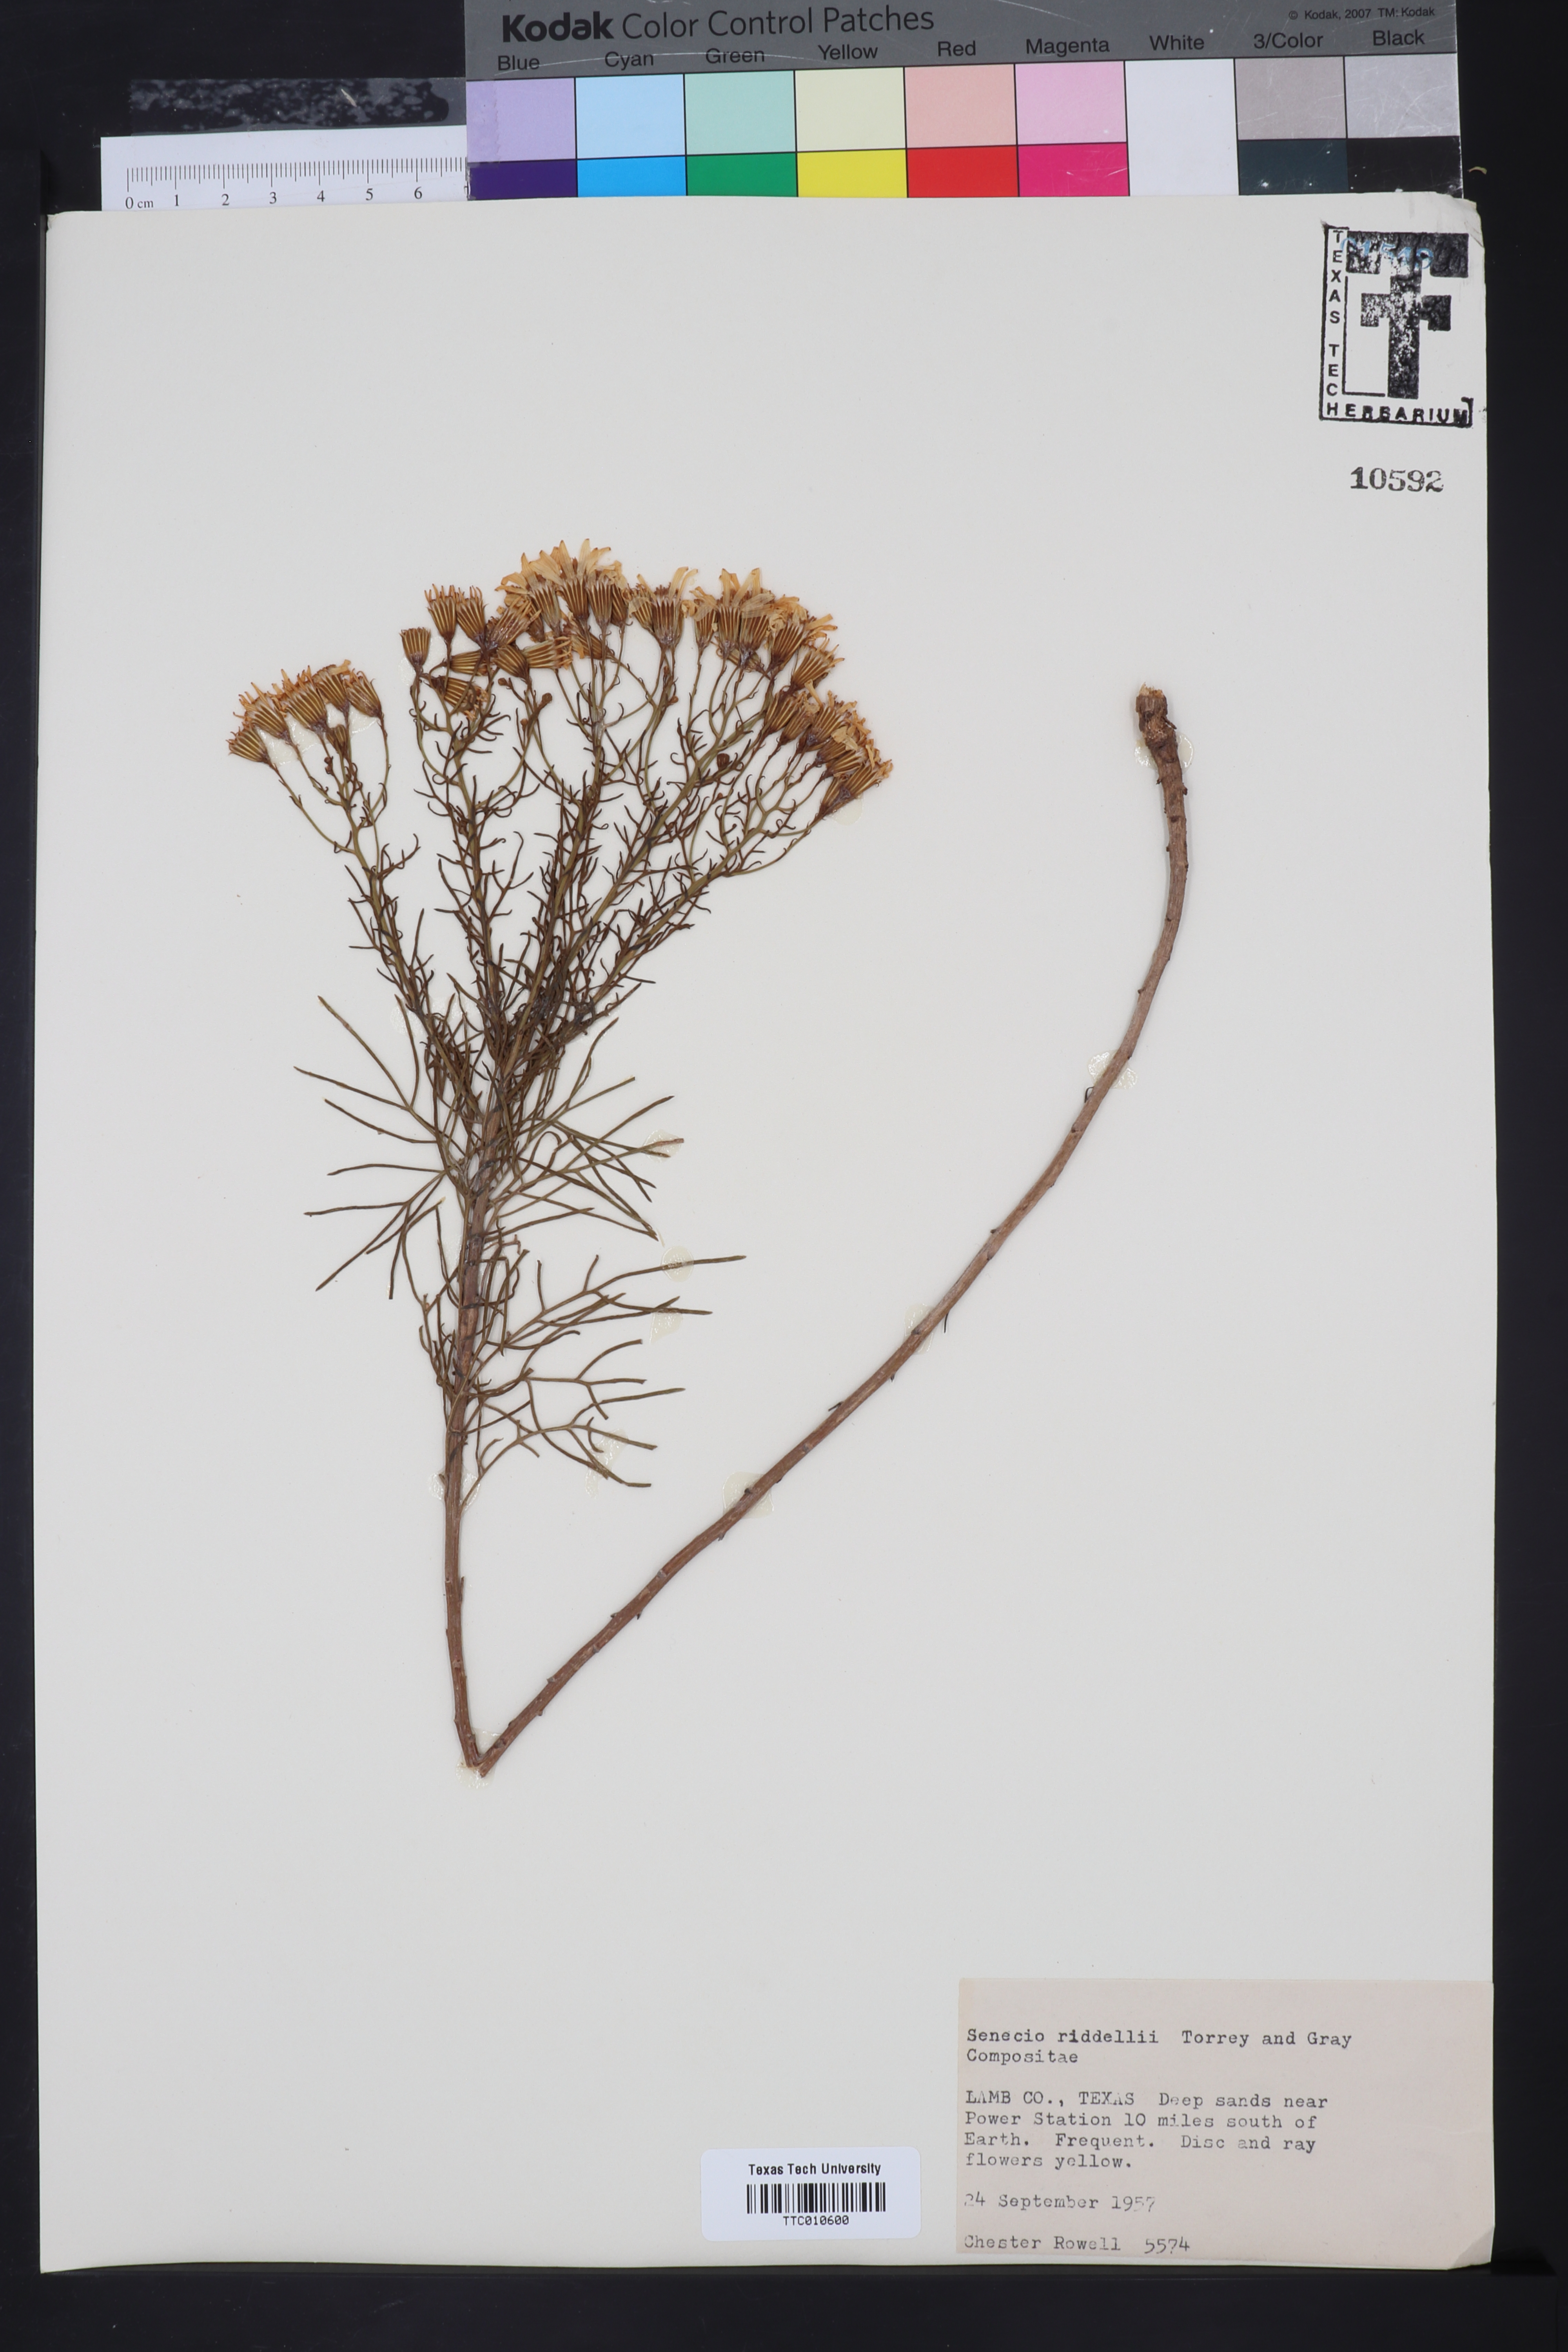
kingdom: Plantae
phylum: Tracheophyta
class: Magnoliopsida
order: Asterales
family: Asteraceae
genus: Senecio
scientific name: Senecio riddellii
